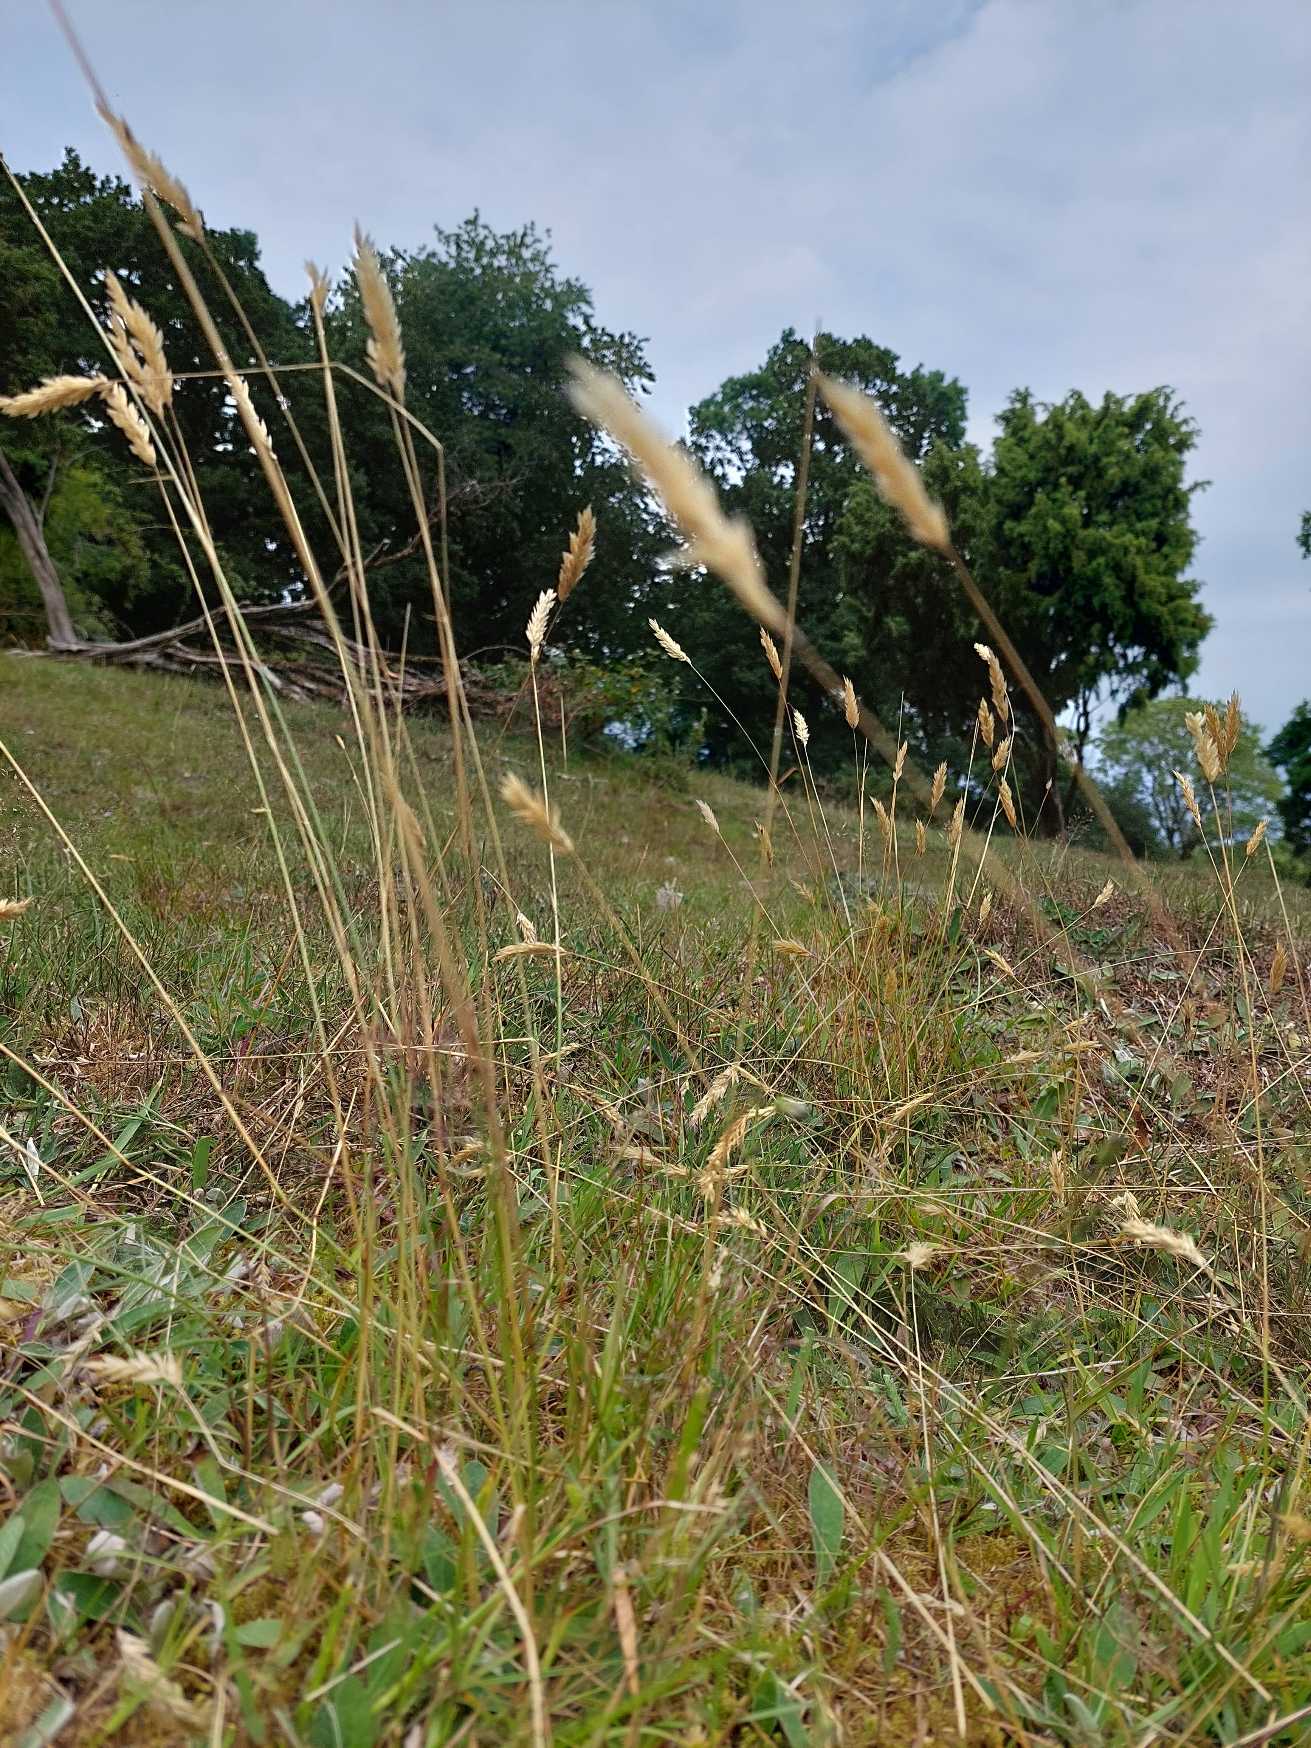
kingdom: Plantae
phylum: Tracheophyta
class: Liliopsida
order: Poales
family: Poaceae
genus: Anthoxanthum
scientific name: Anthoxanthum odoratum
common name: Vellugtende gulaks
